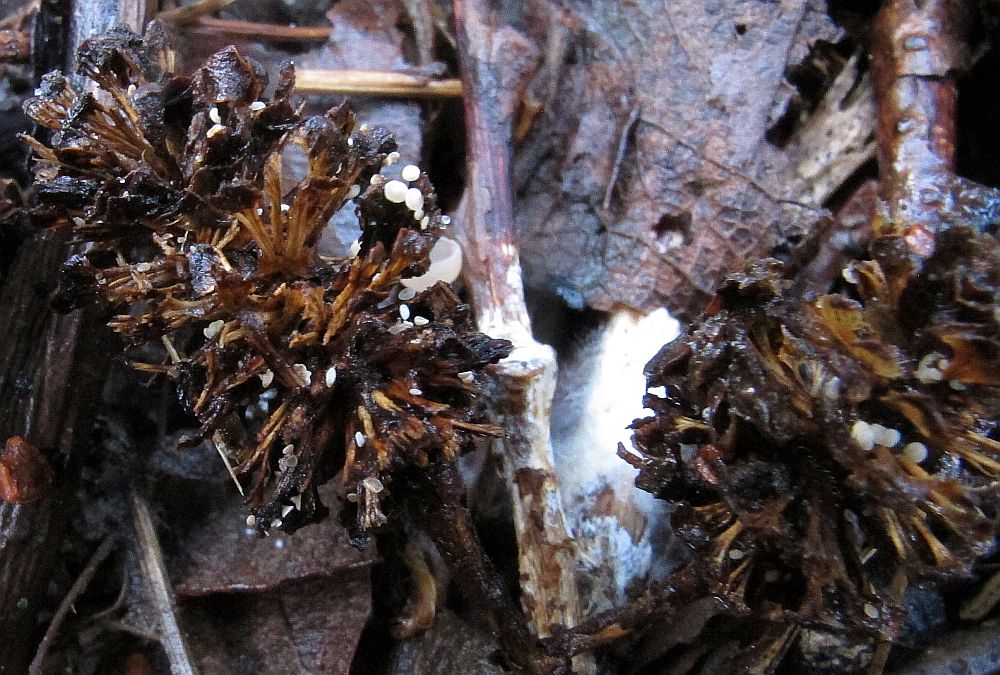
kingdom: Fungi
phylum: Ascomycota
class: Leotiomycetes
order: Helotiales
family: Pezizellaceae
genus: Calycina
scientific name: Calycina alniella
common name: ellekogle-stilkskive
